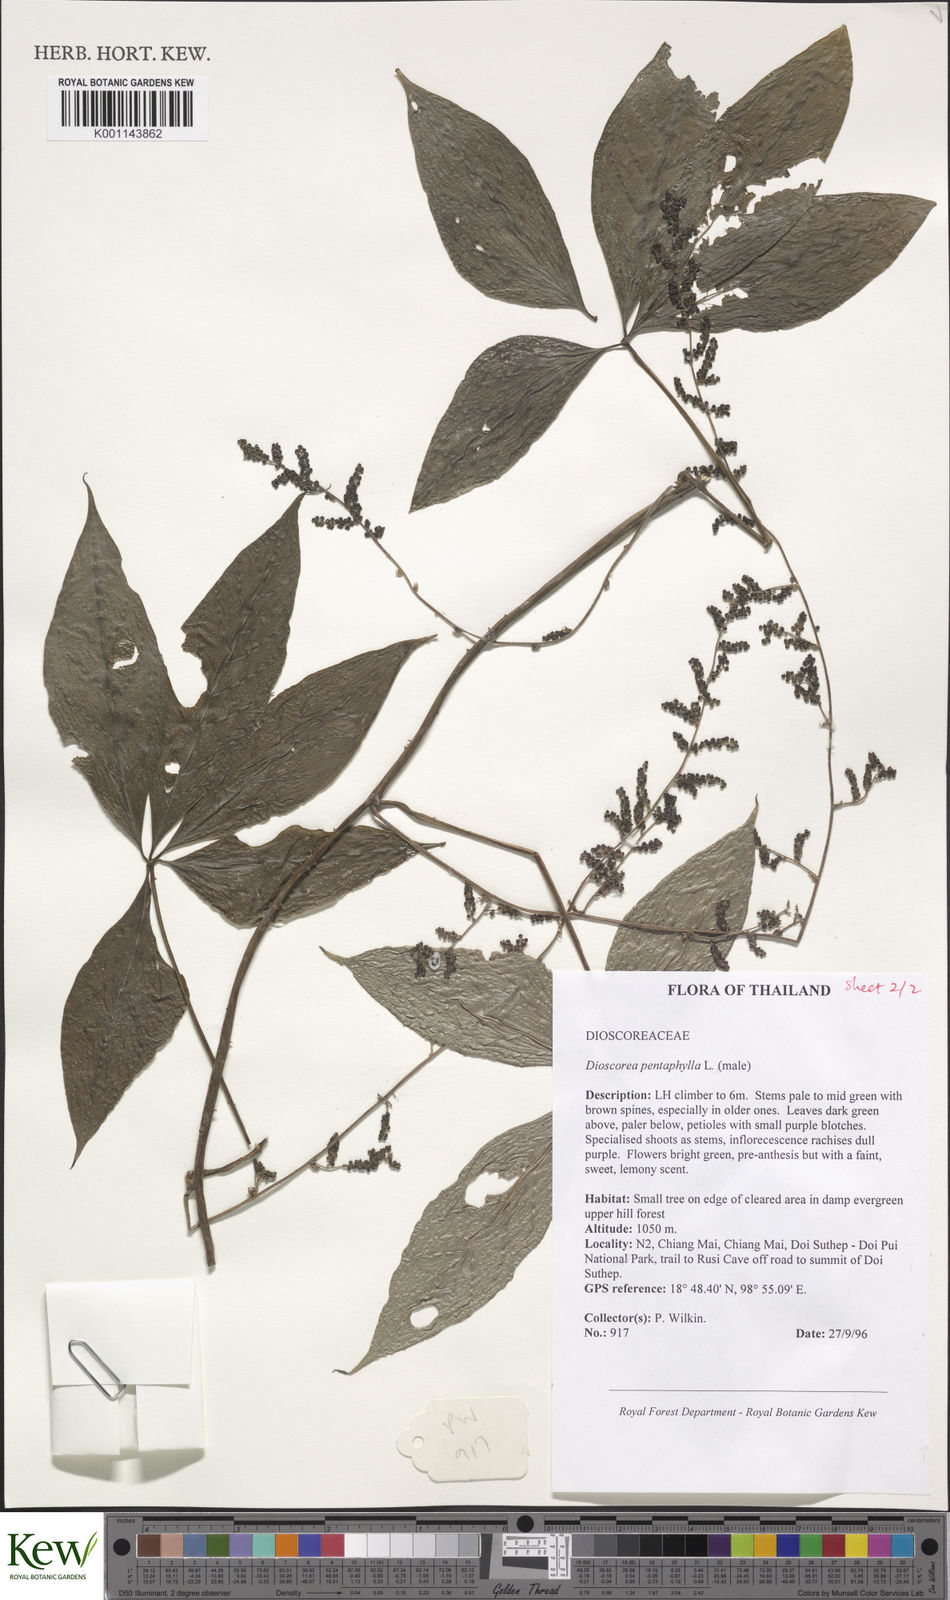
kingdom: Plantae
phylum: Tracheophyta
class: Liliopsida
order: Dioscoreales
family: Dioscoreaceae
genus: Dioscorea
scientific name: Dioscorea pentaphylla
